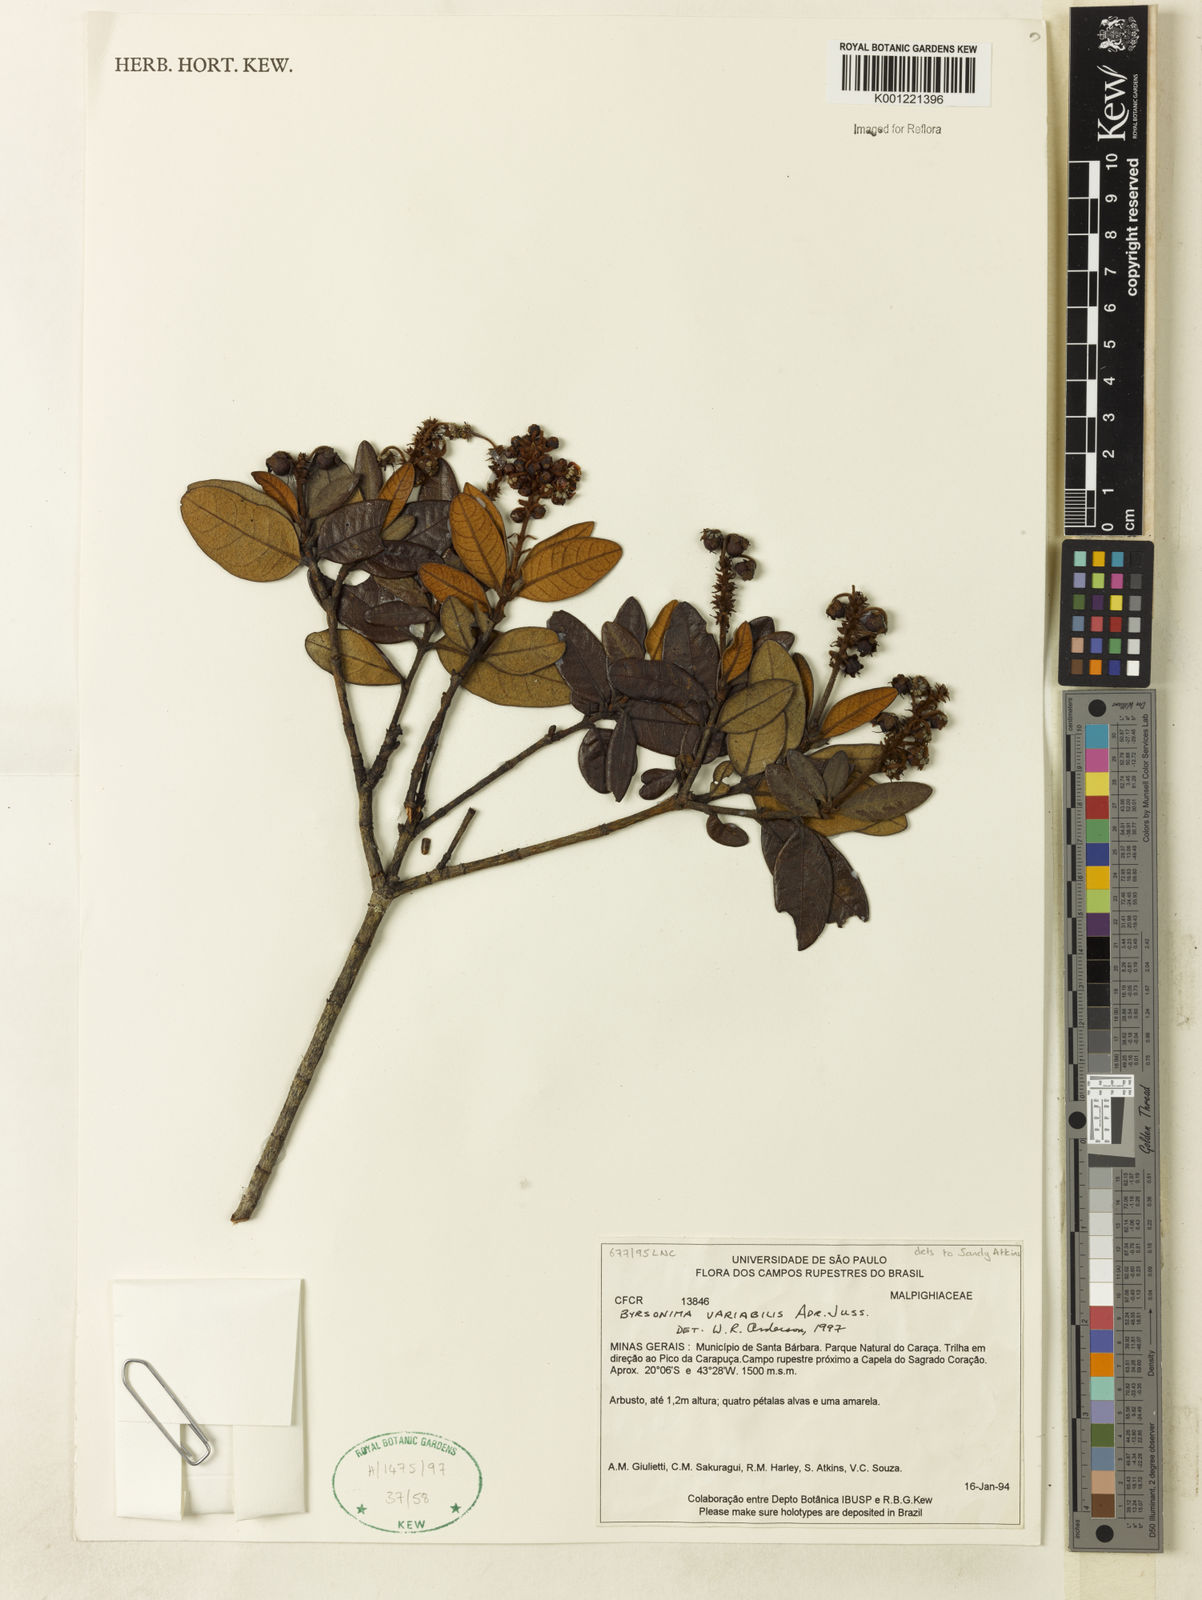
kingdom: Plantae
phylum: Tracheophyta
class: Magnoliopsida
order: Malpighiales
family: Malpighiaceae
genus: Byrsonima
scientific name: Byrsonima variabilis
